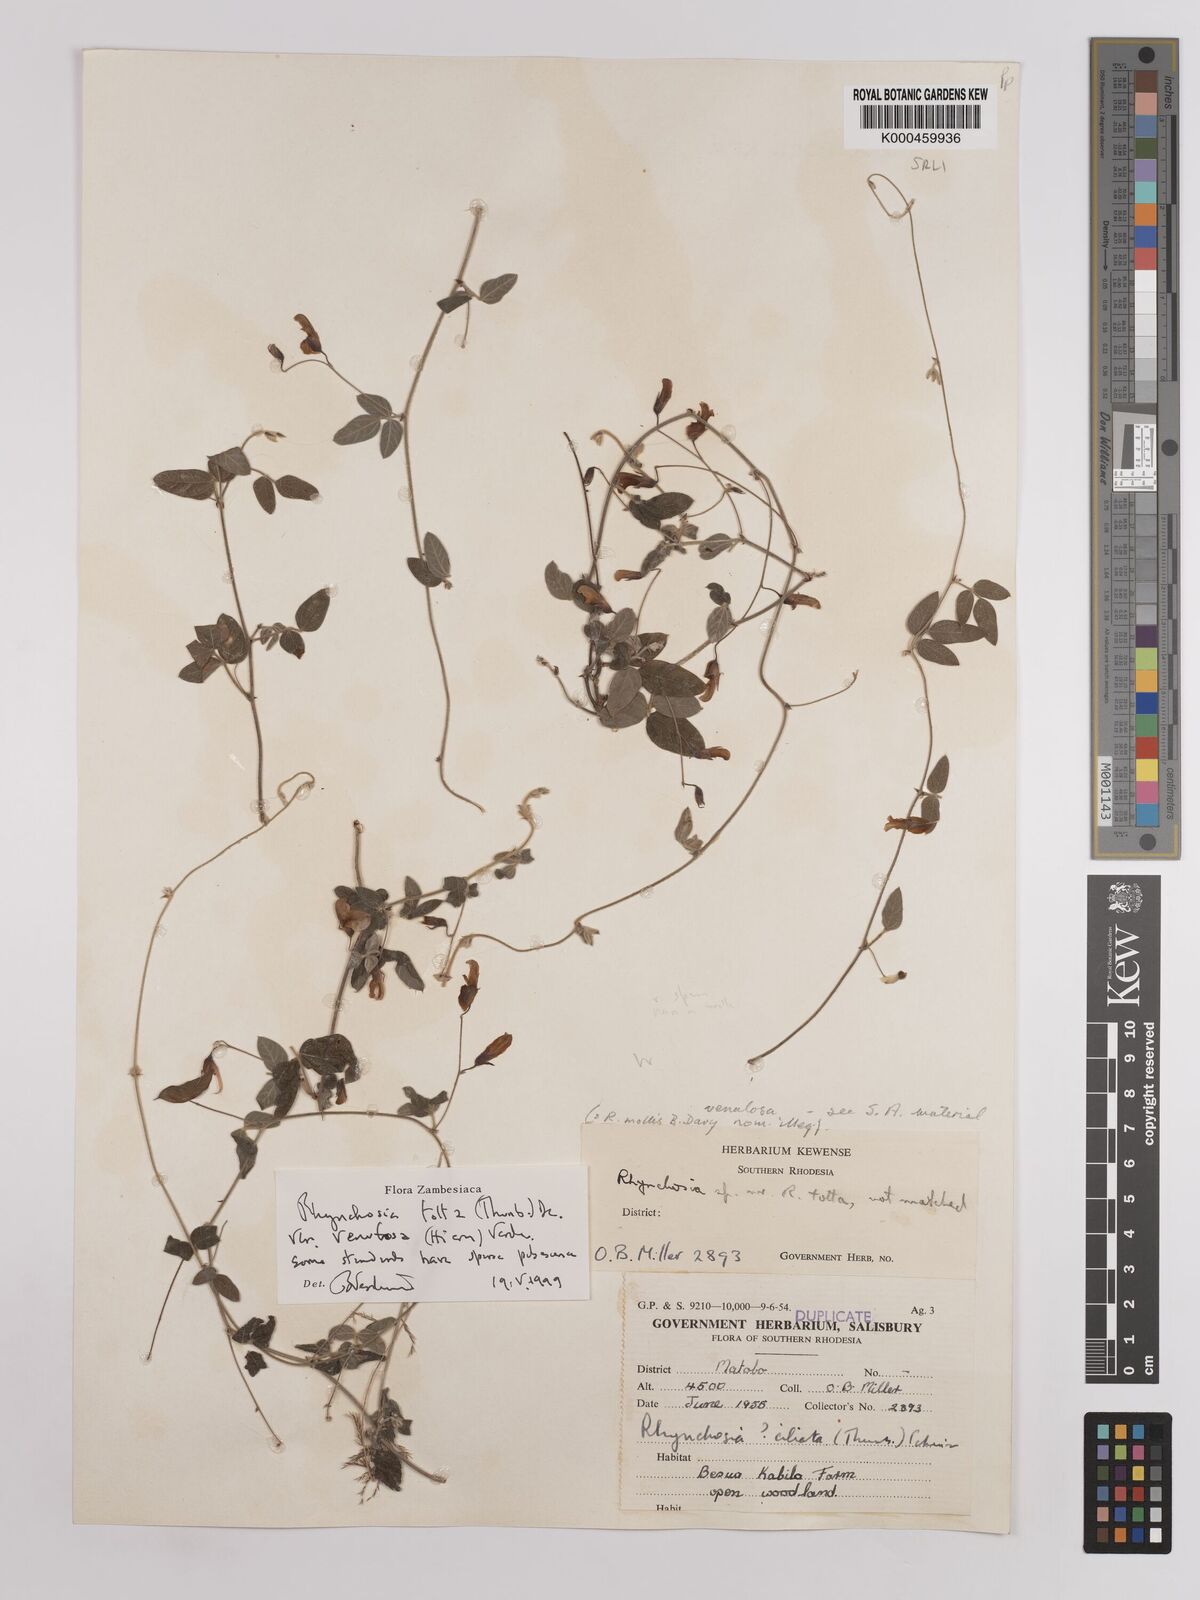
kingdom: Plantae
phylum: Tracheophyta
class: Magnoliopsida
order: Fabales
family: Fabaceae
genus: Rhynchosia
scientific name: Rhynchosia totta
